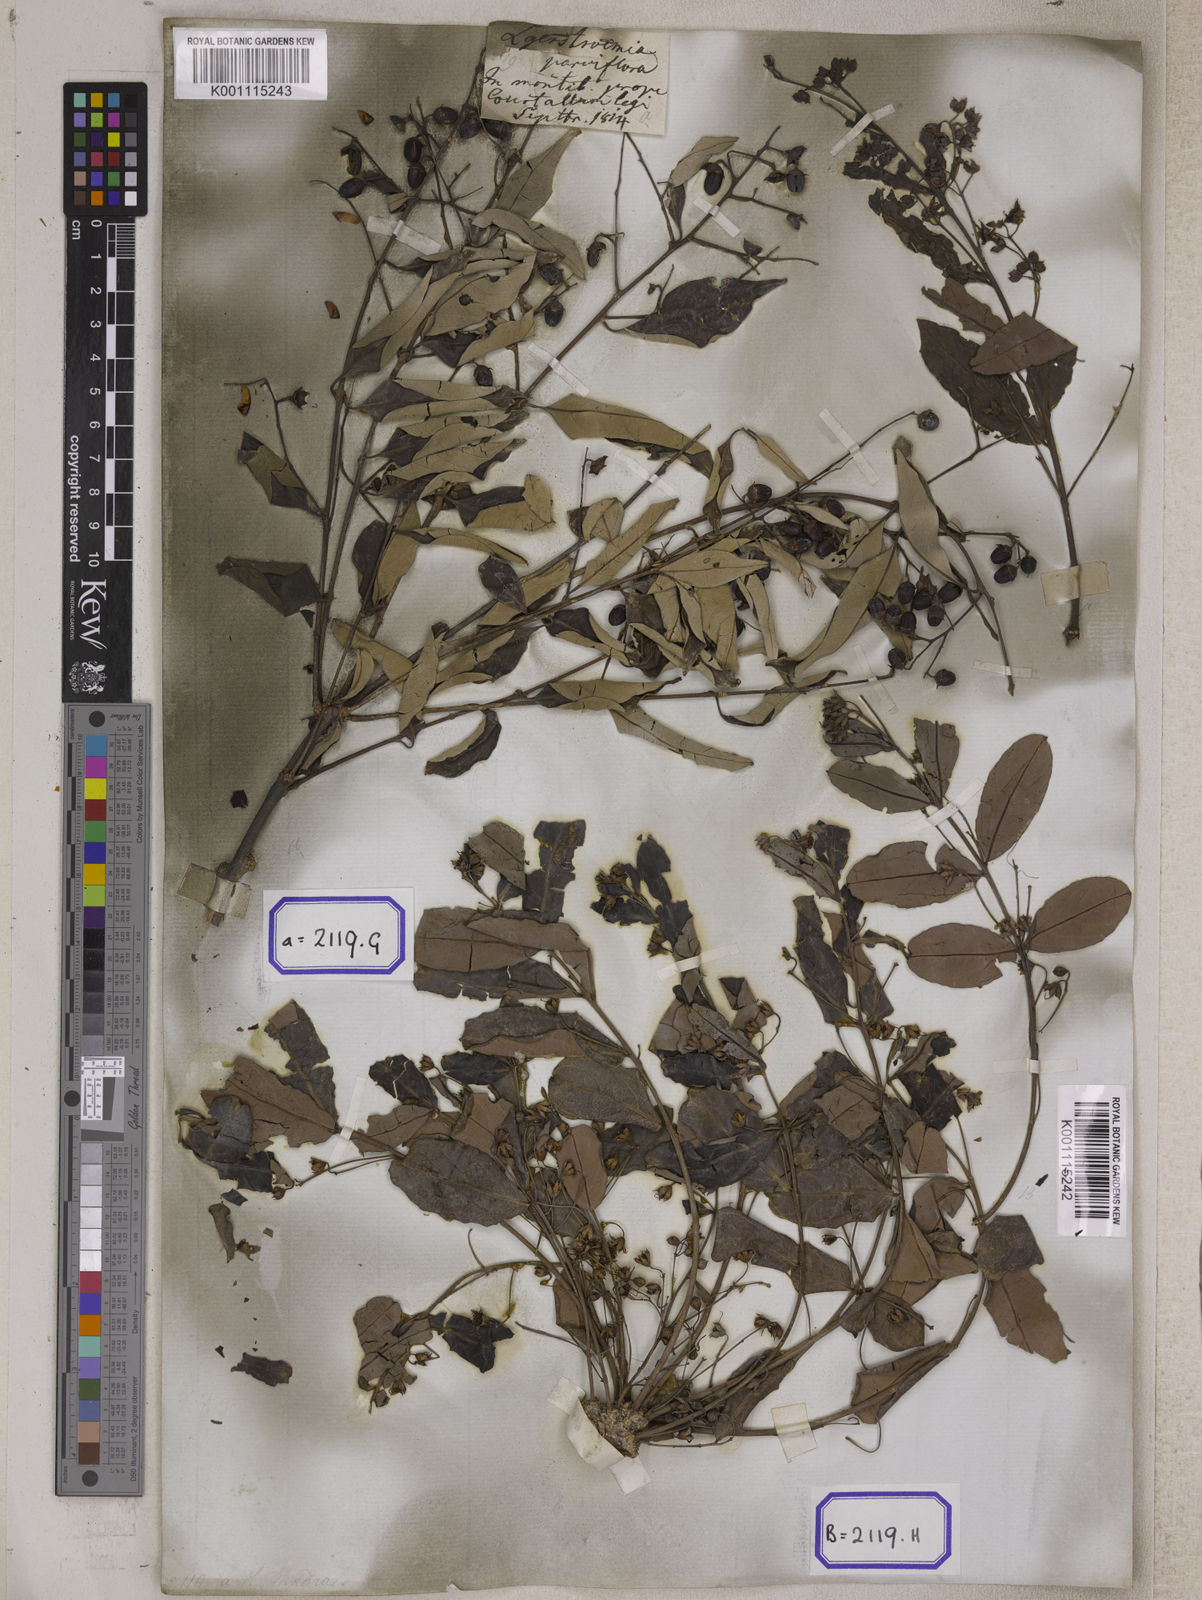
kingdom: Plantae
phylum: Tracheophyta
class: Magnoliopsida
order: Myrtales
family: Lythraceae
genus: Lagerstroemia
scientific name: Lagerstroemia parviflora
